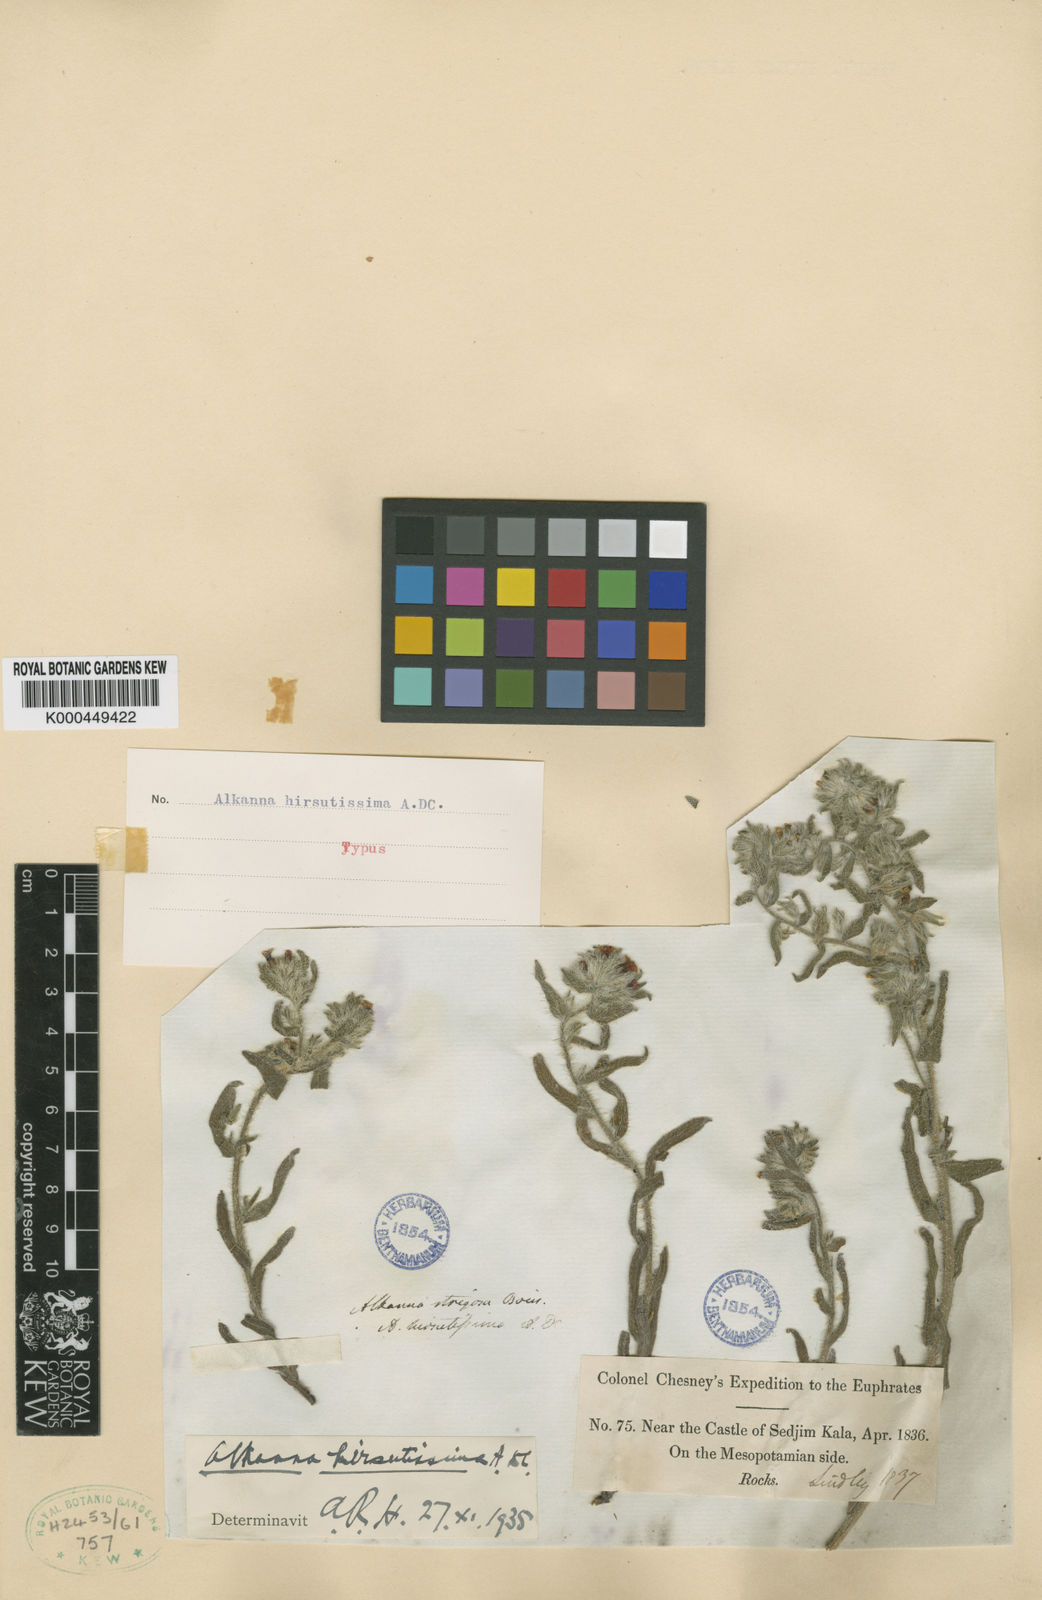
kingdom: Plantae
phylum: Tracheophyta
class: Magnoliopsida
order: Boraginales
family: Boraginaceae
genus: Alkanna
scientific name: Alkanna hirsutissima
